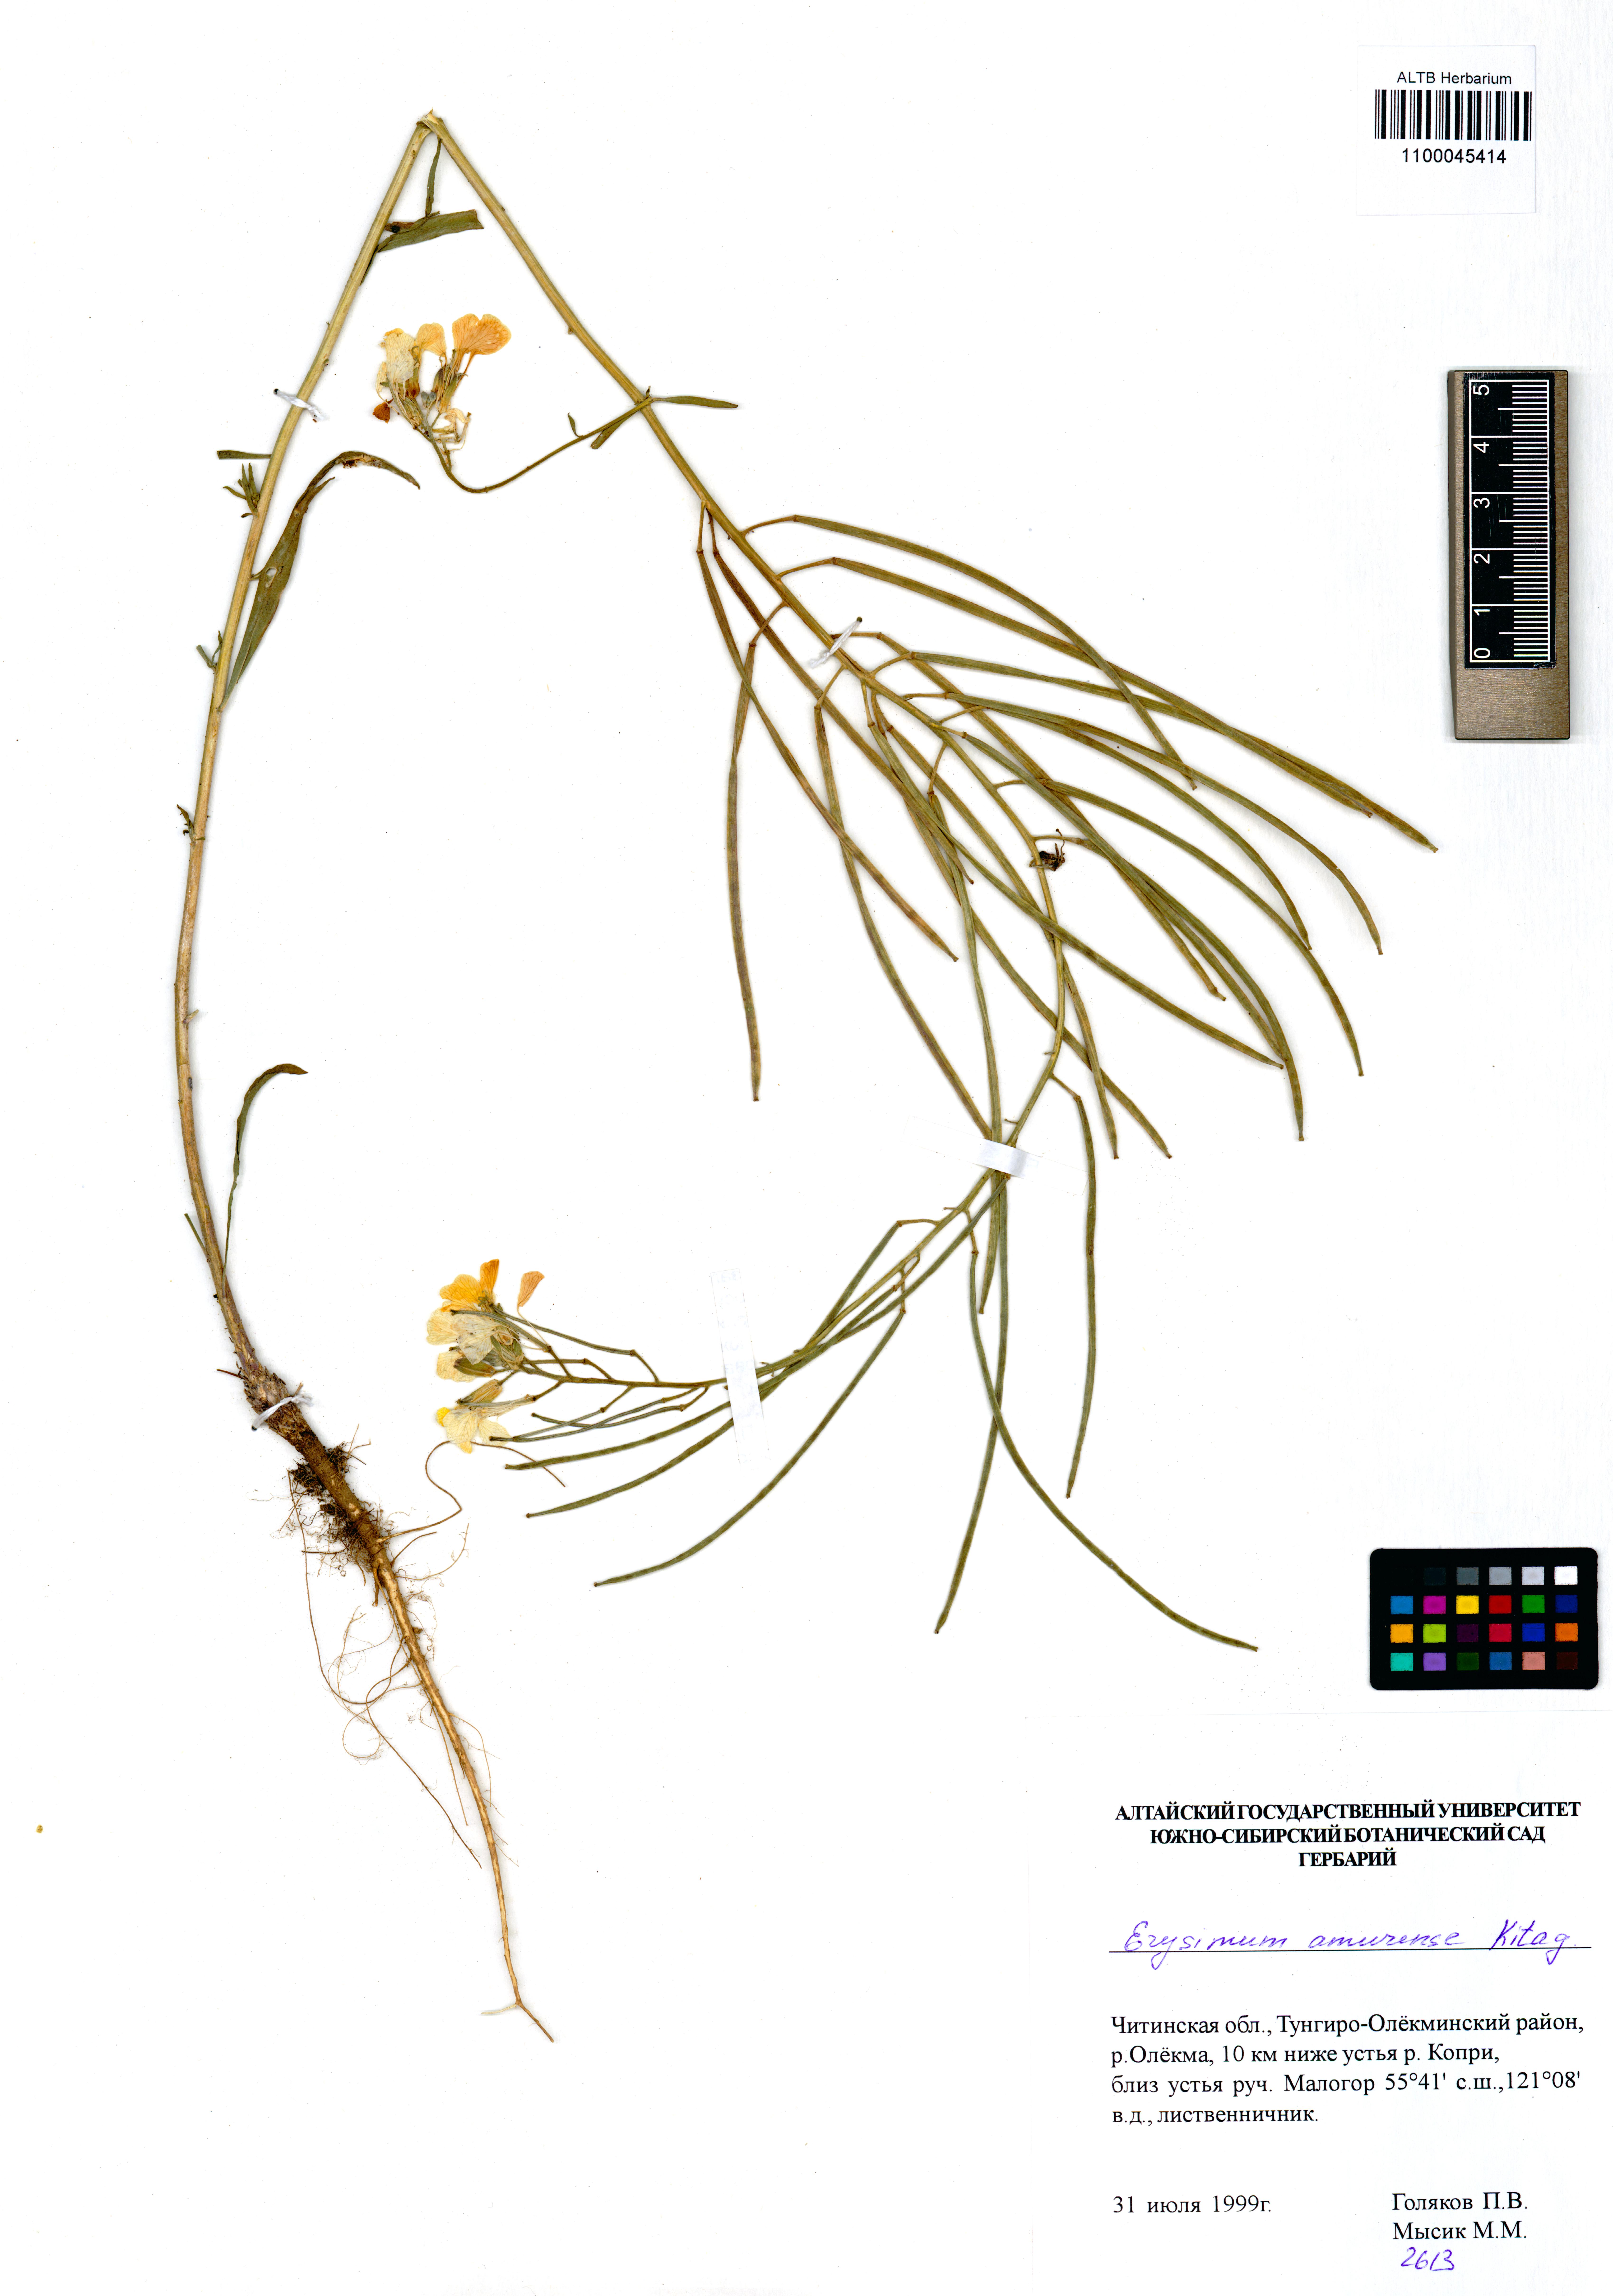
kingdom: Plantae
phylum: Tracheophyta
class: Magnoliopsida
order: Brassicales
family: Brassicaceae
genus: Erysimum
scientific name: Erysimum amurense
